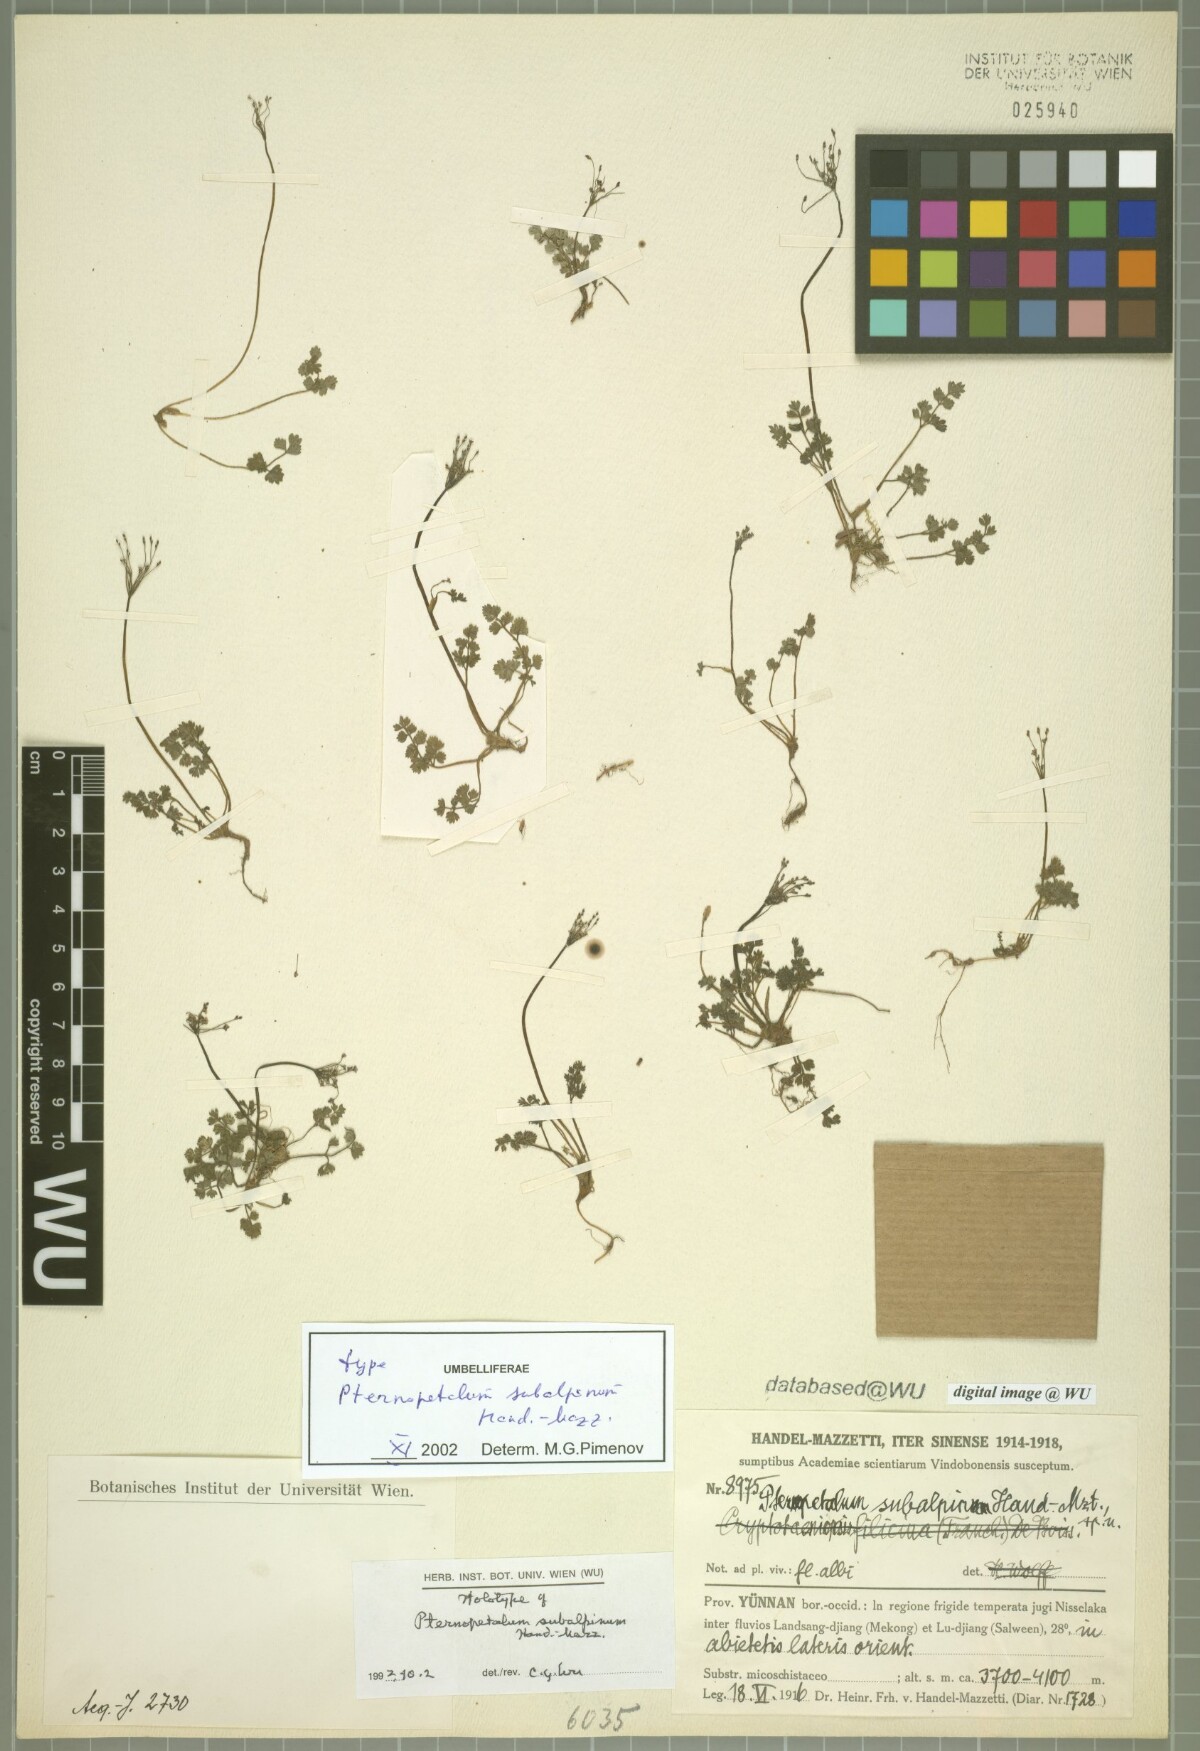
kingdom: Plantae
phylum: Tracheophyta
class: Magnoliopsida
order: Apiales
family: Apiaceae
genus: Pternopetalum
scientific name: Pternopetalum subalpinum
